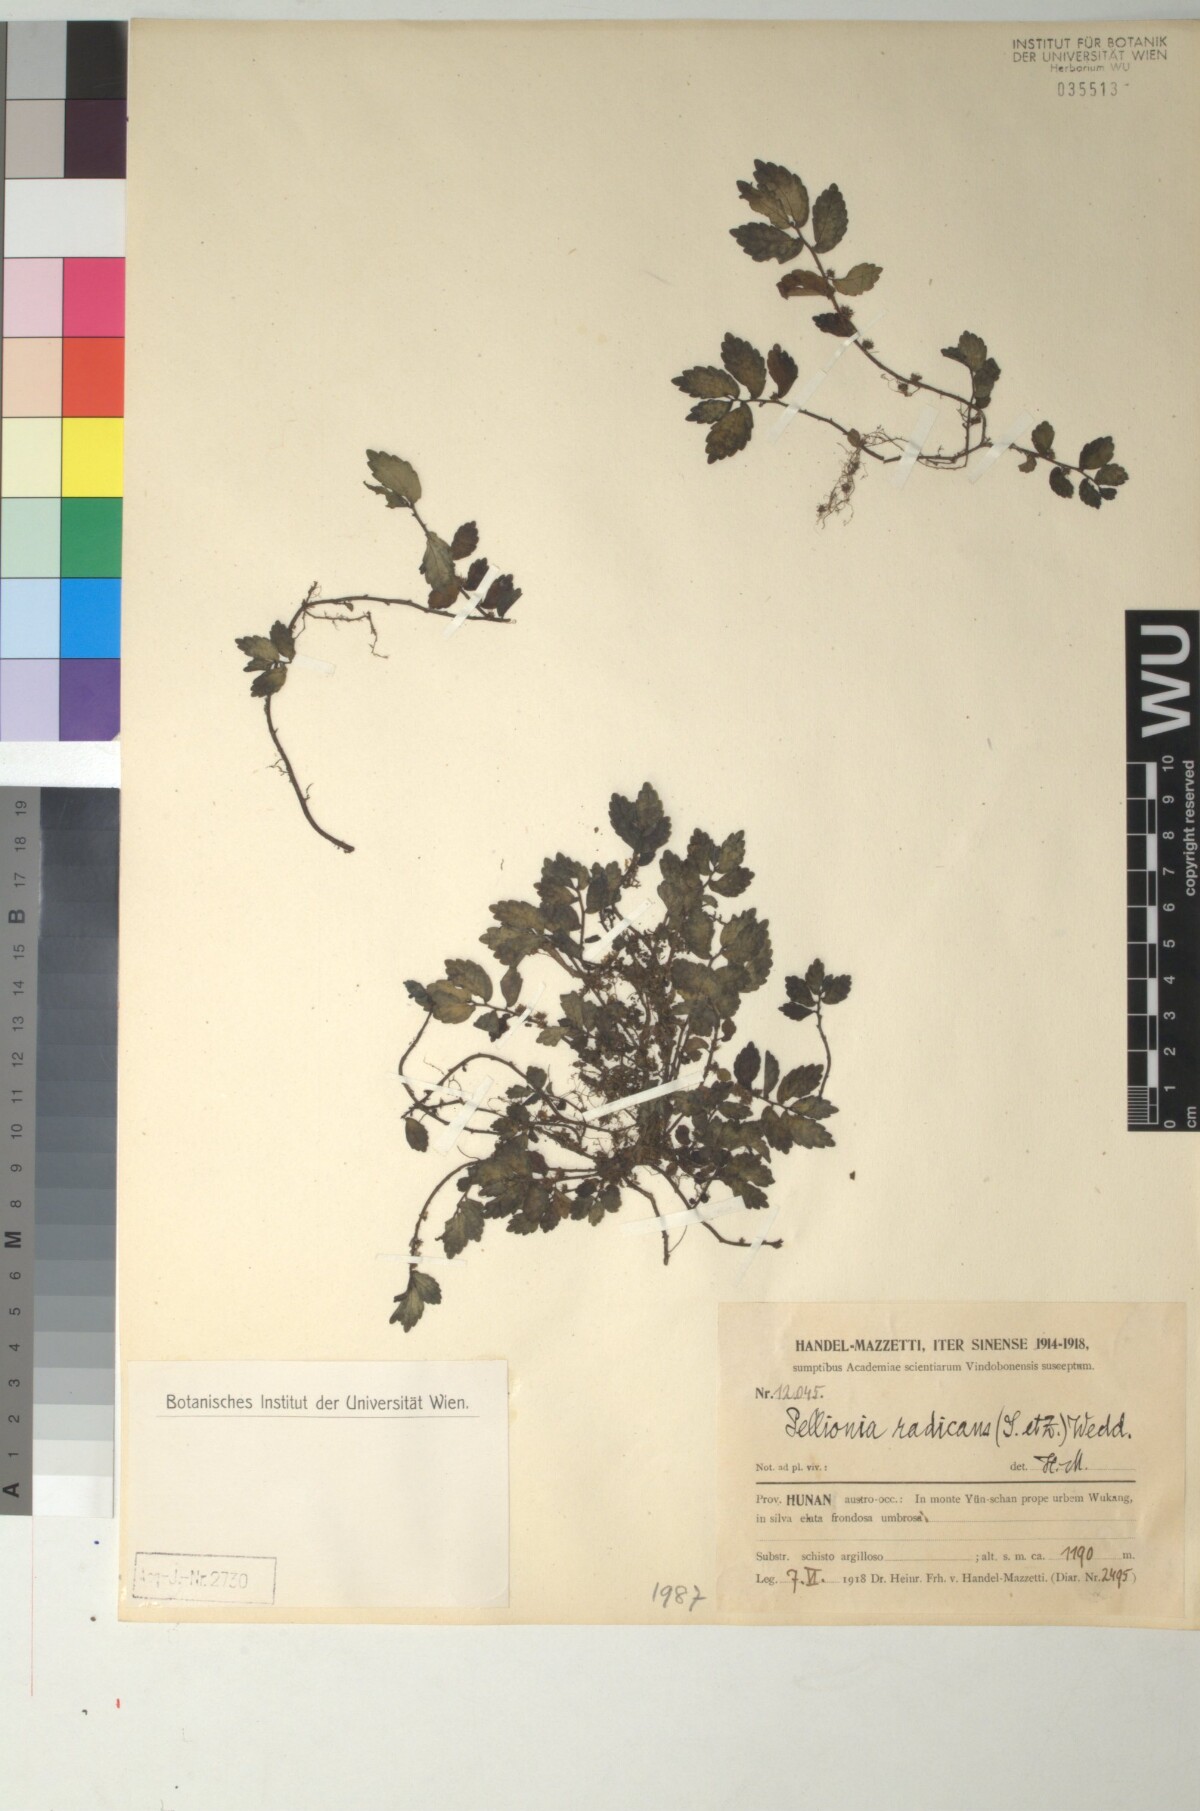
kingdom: Plantae
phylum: Tracheophyta
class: Magnoliopsida
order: Rosales
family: Urticaceae
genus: Elatostema
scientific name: Elatostema radicans
